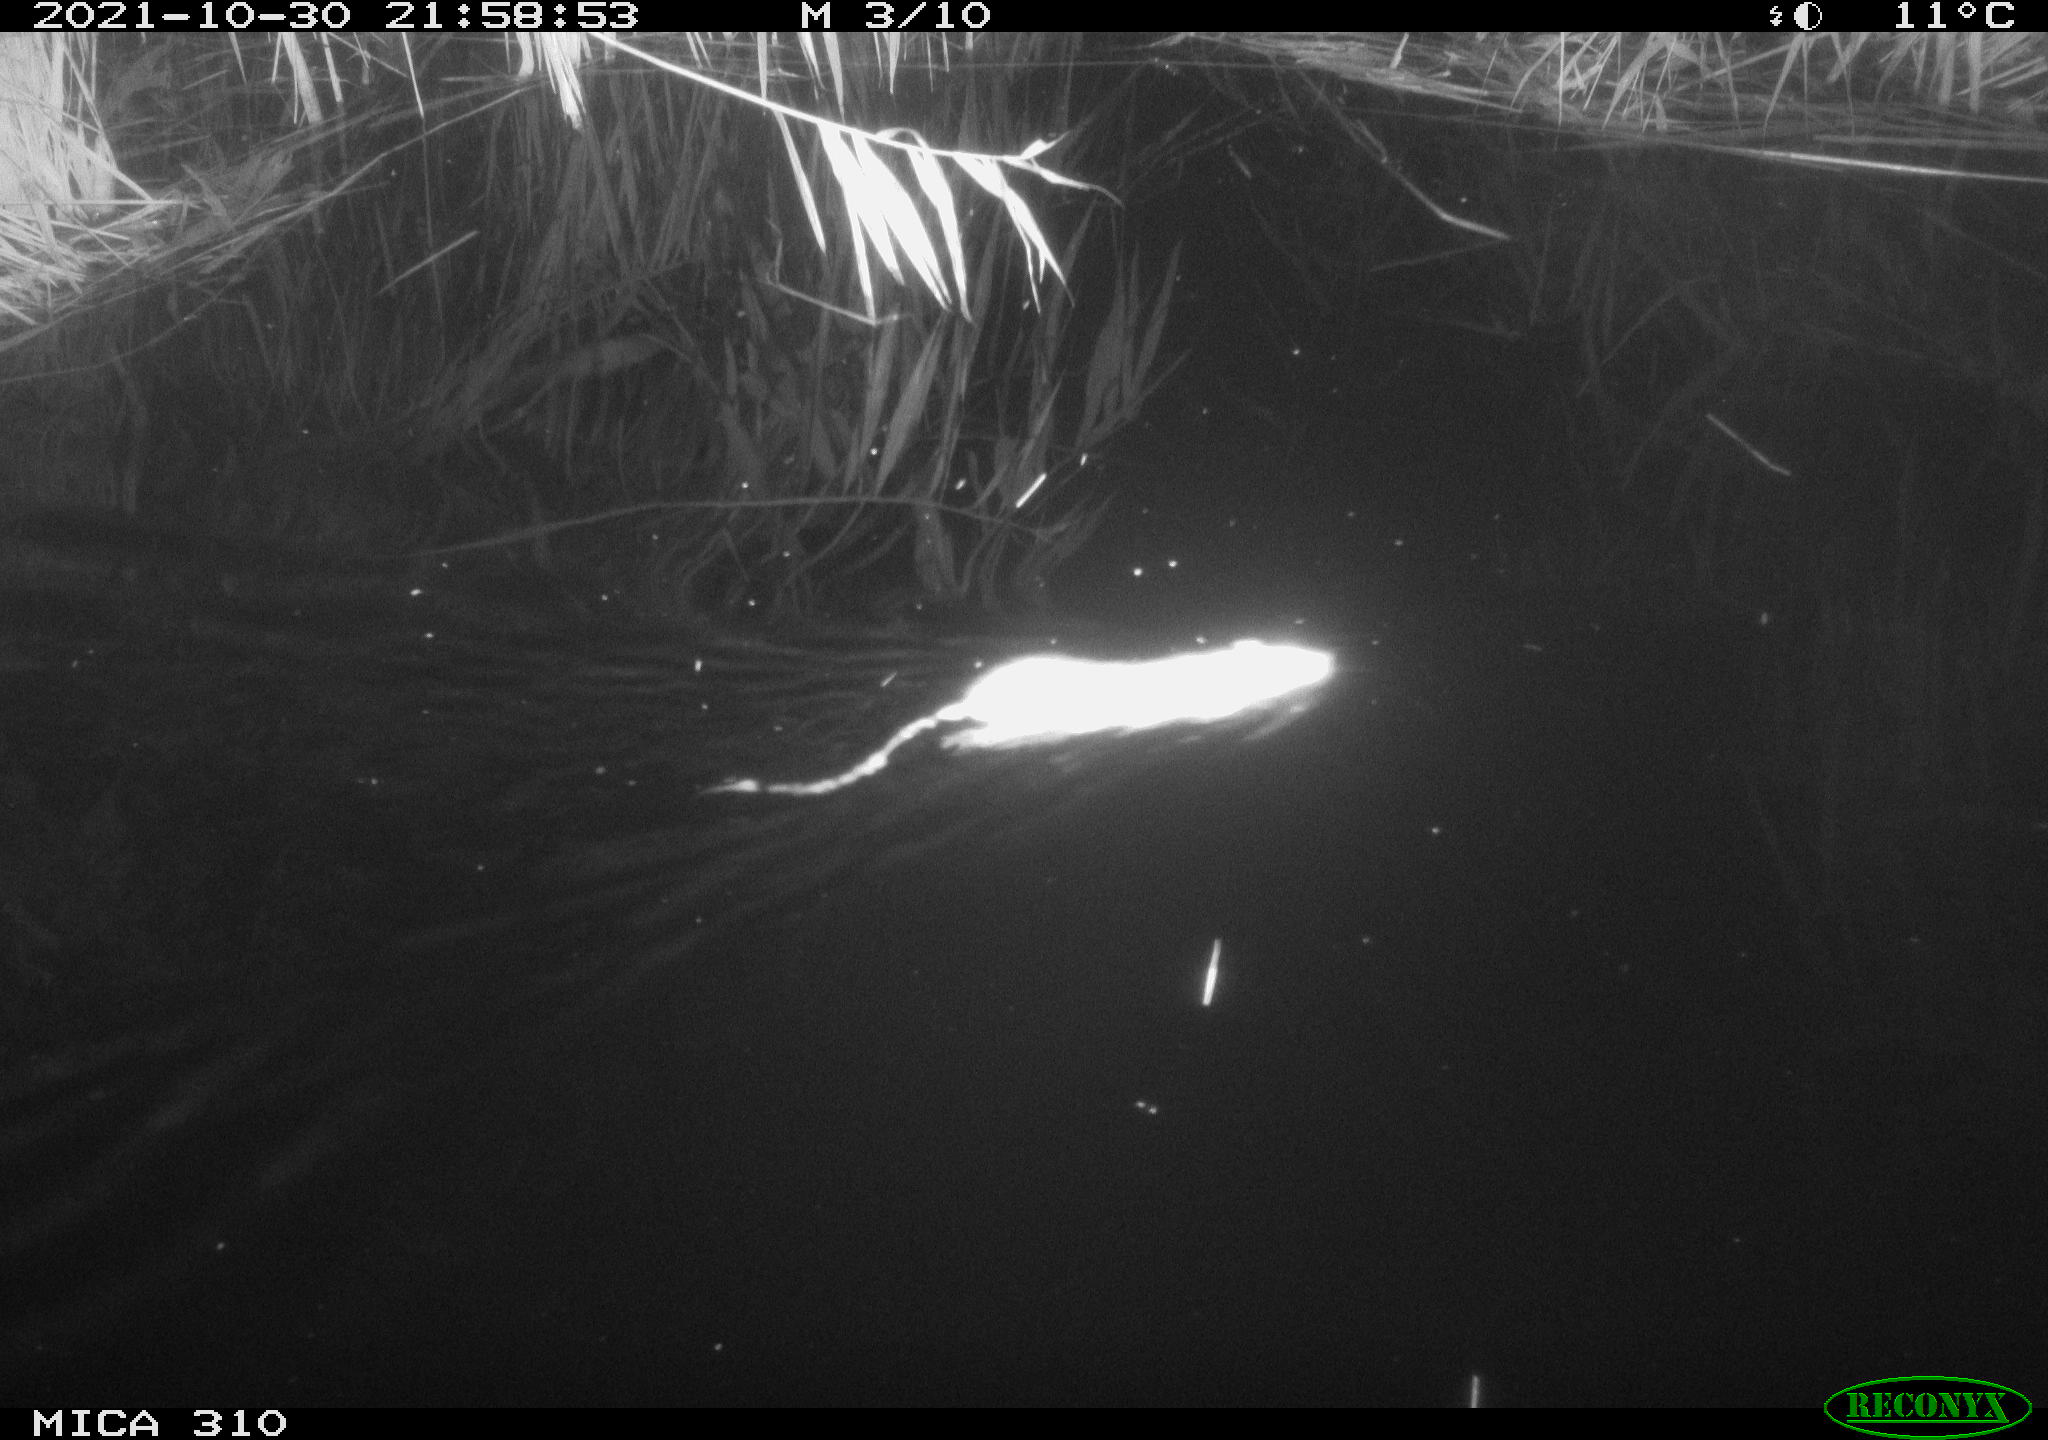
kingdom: Animalia
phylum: Chordata
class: Mammalia
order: Rodentia
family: Muridae
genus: Rattus
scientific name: Rattus norvegicus
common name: Brown rat
